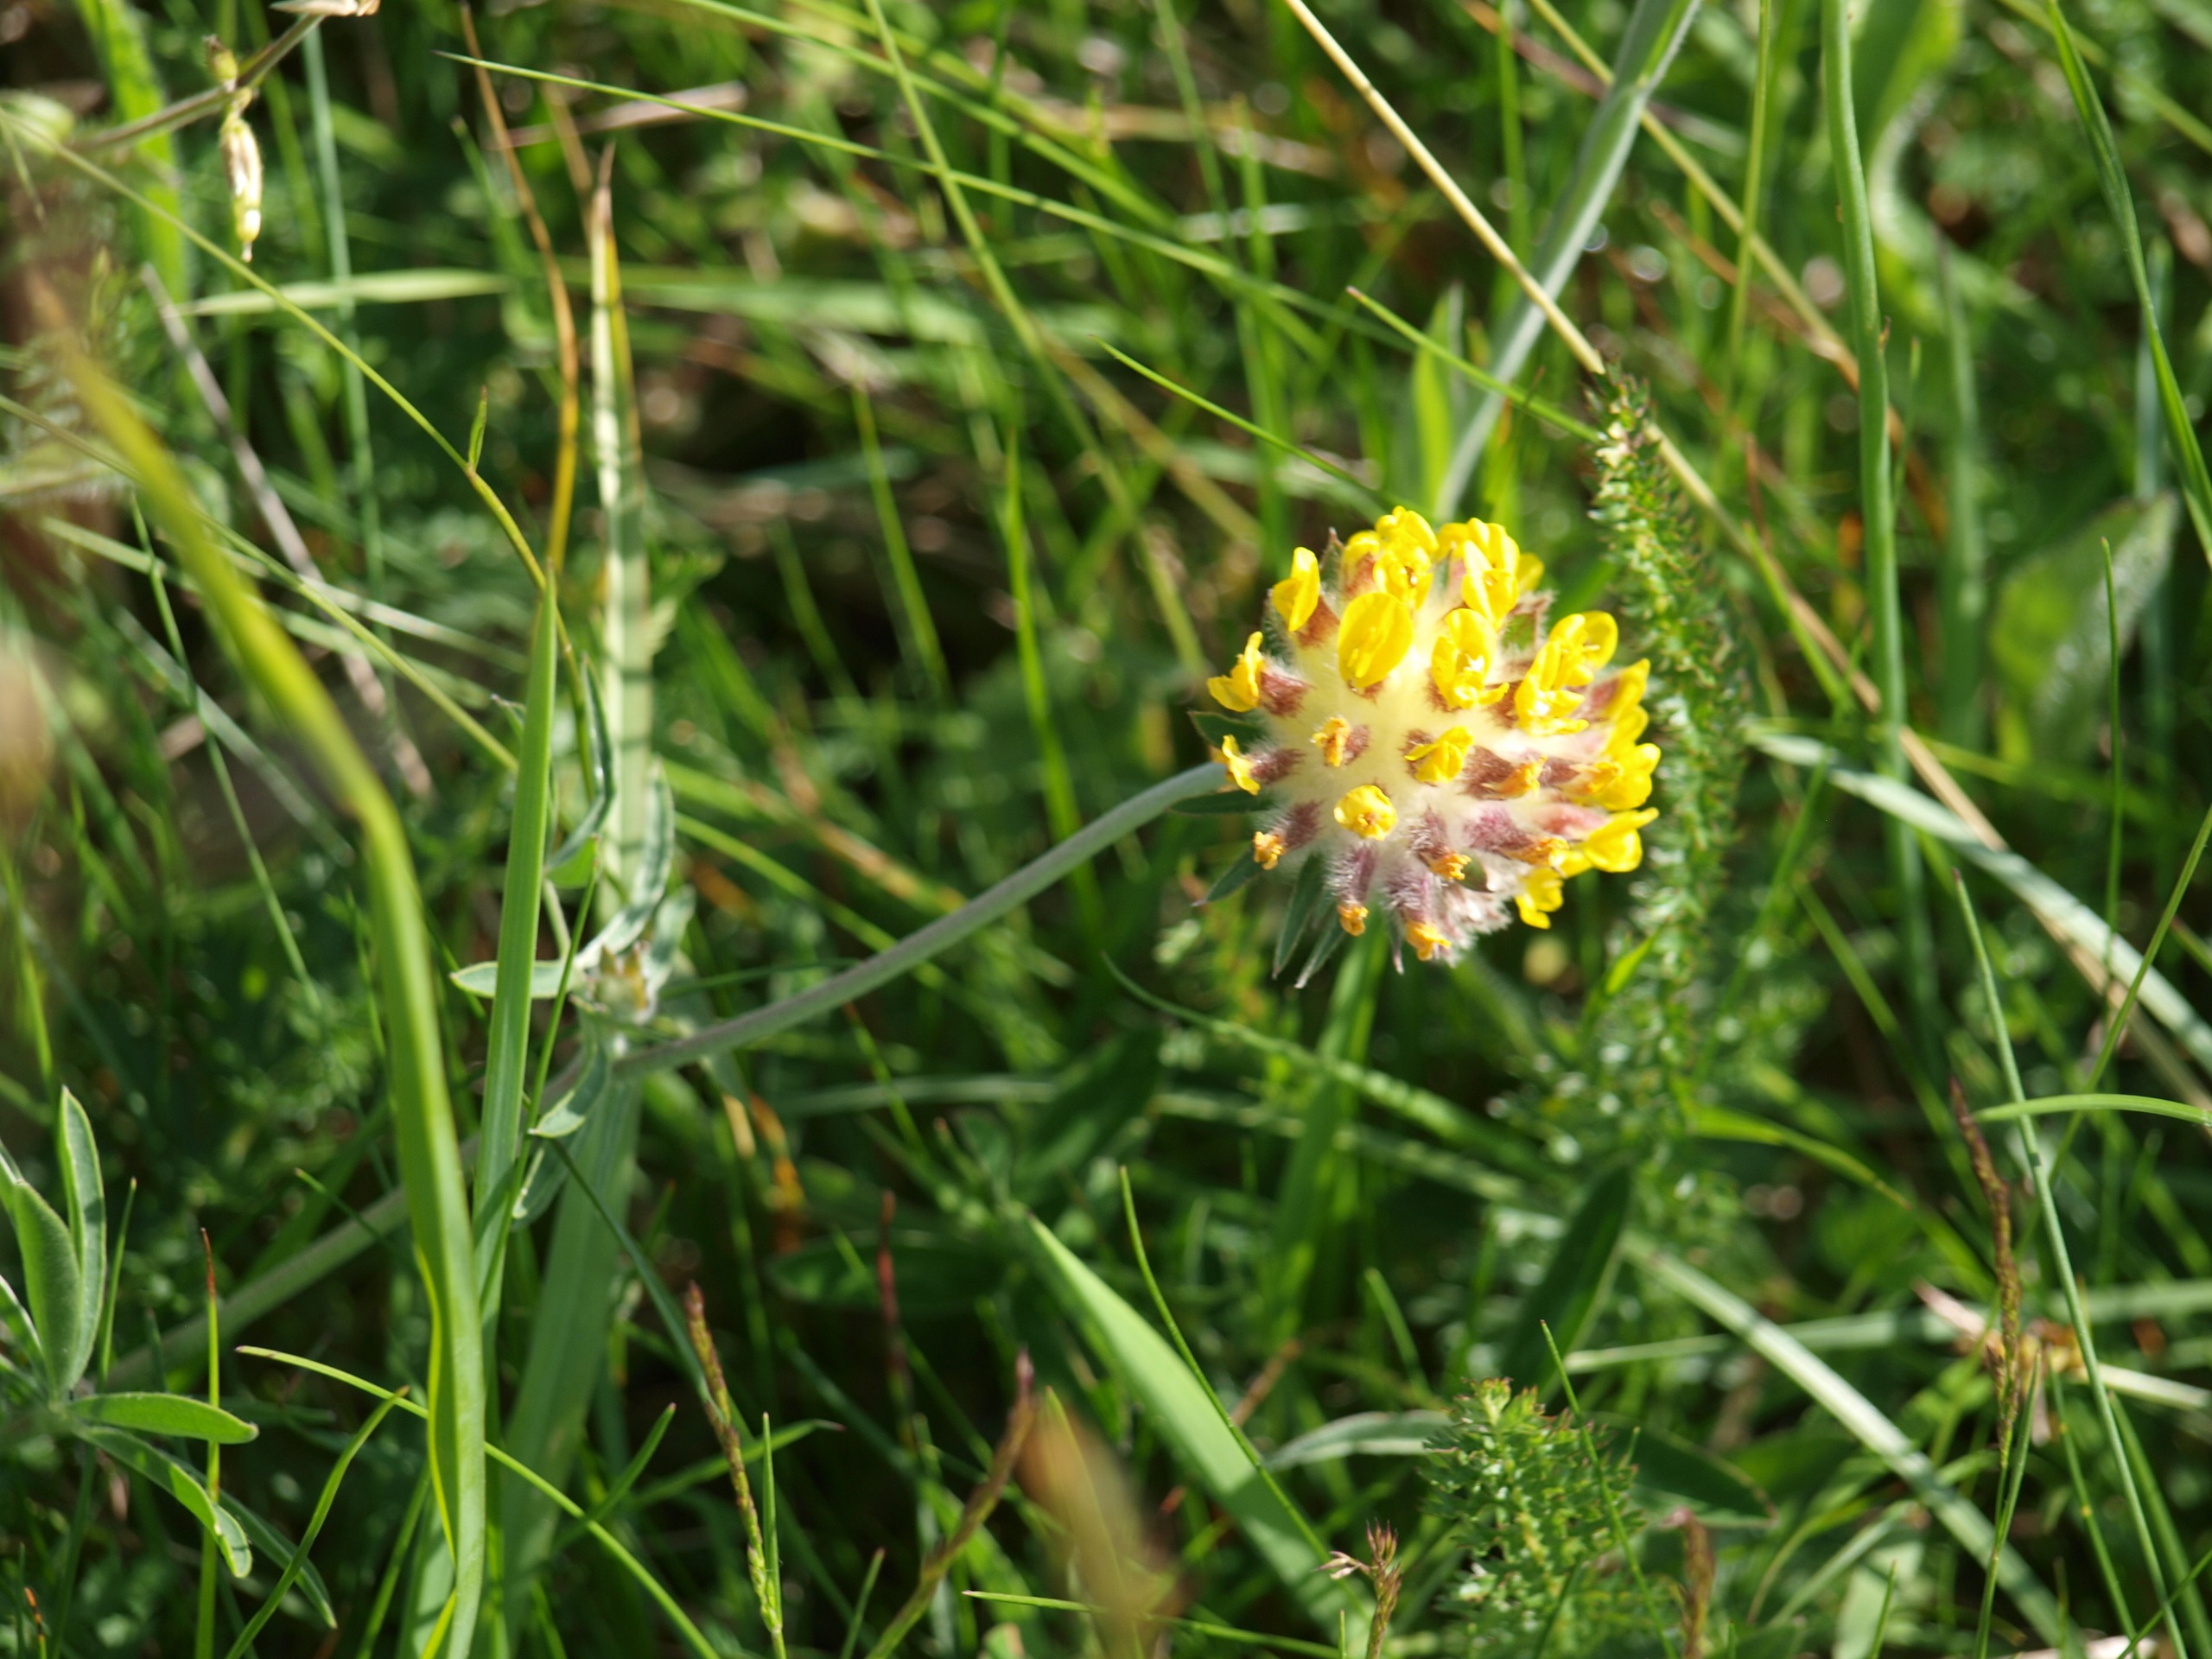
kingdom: Plantae
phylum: Tracheophyta
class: Magnoliopsida
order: Fabales
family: Fabaceae
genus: Anthyllis
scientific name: Anthyllis vulneraria
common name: Rundbælg
